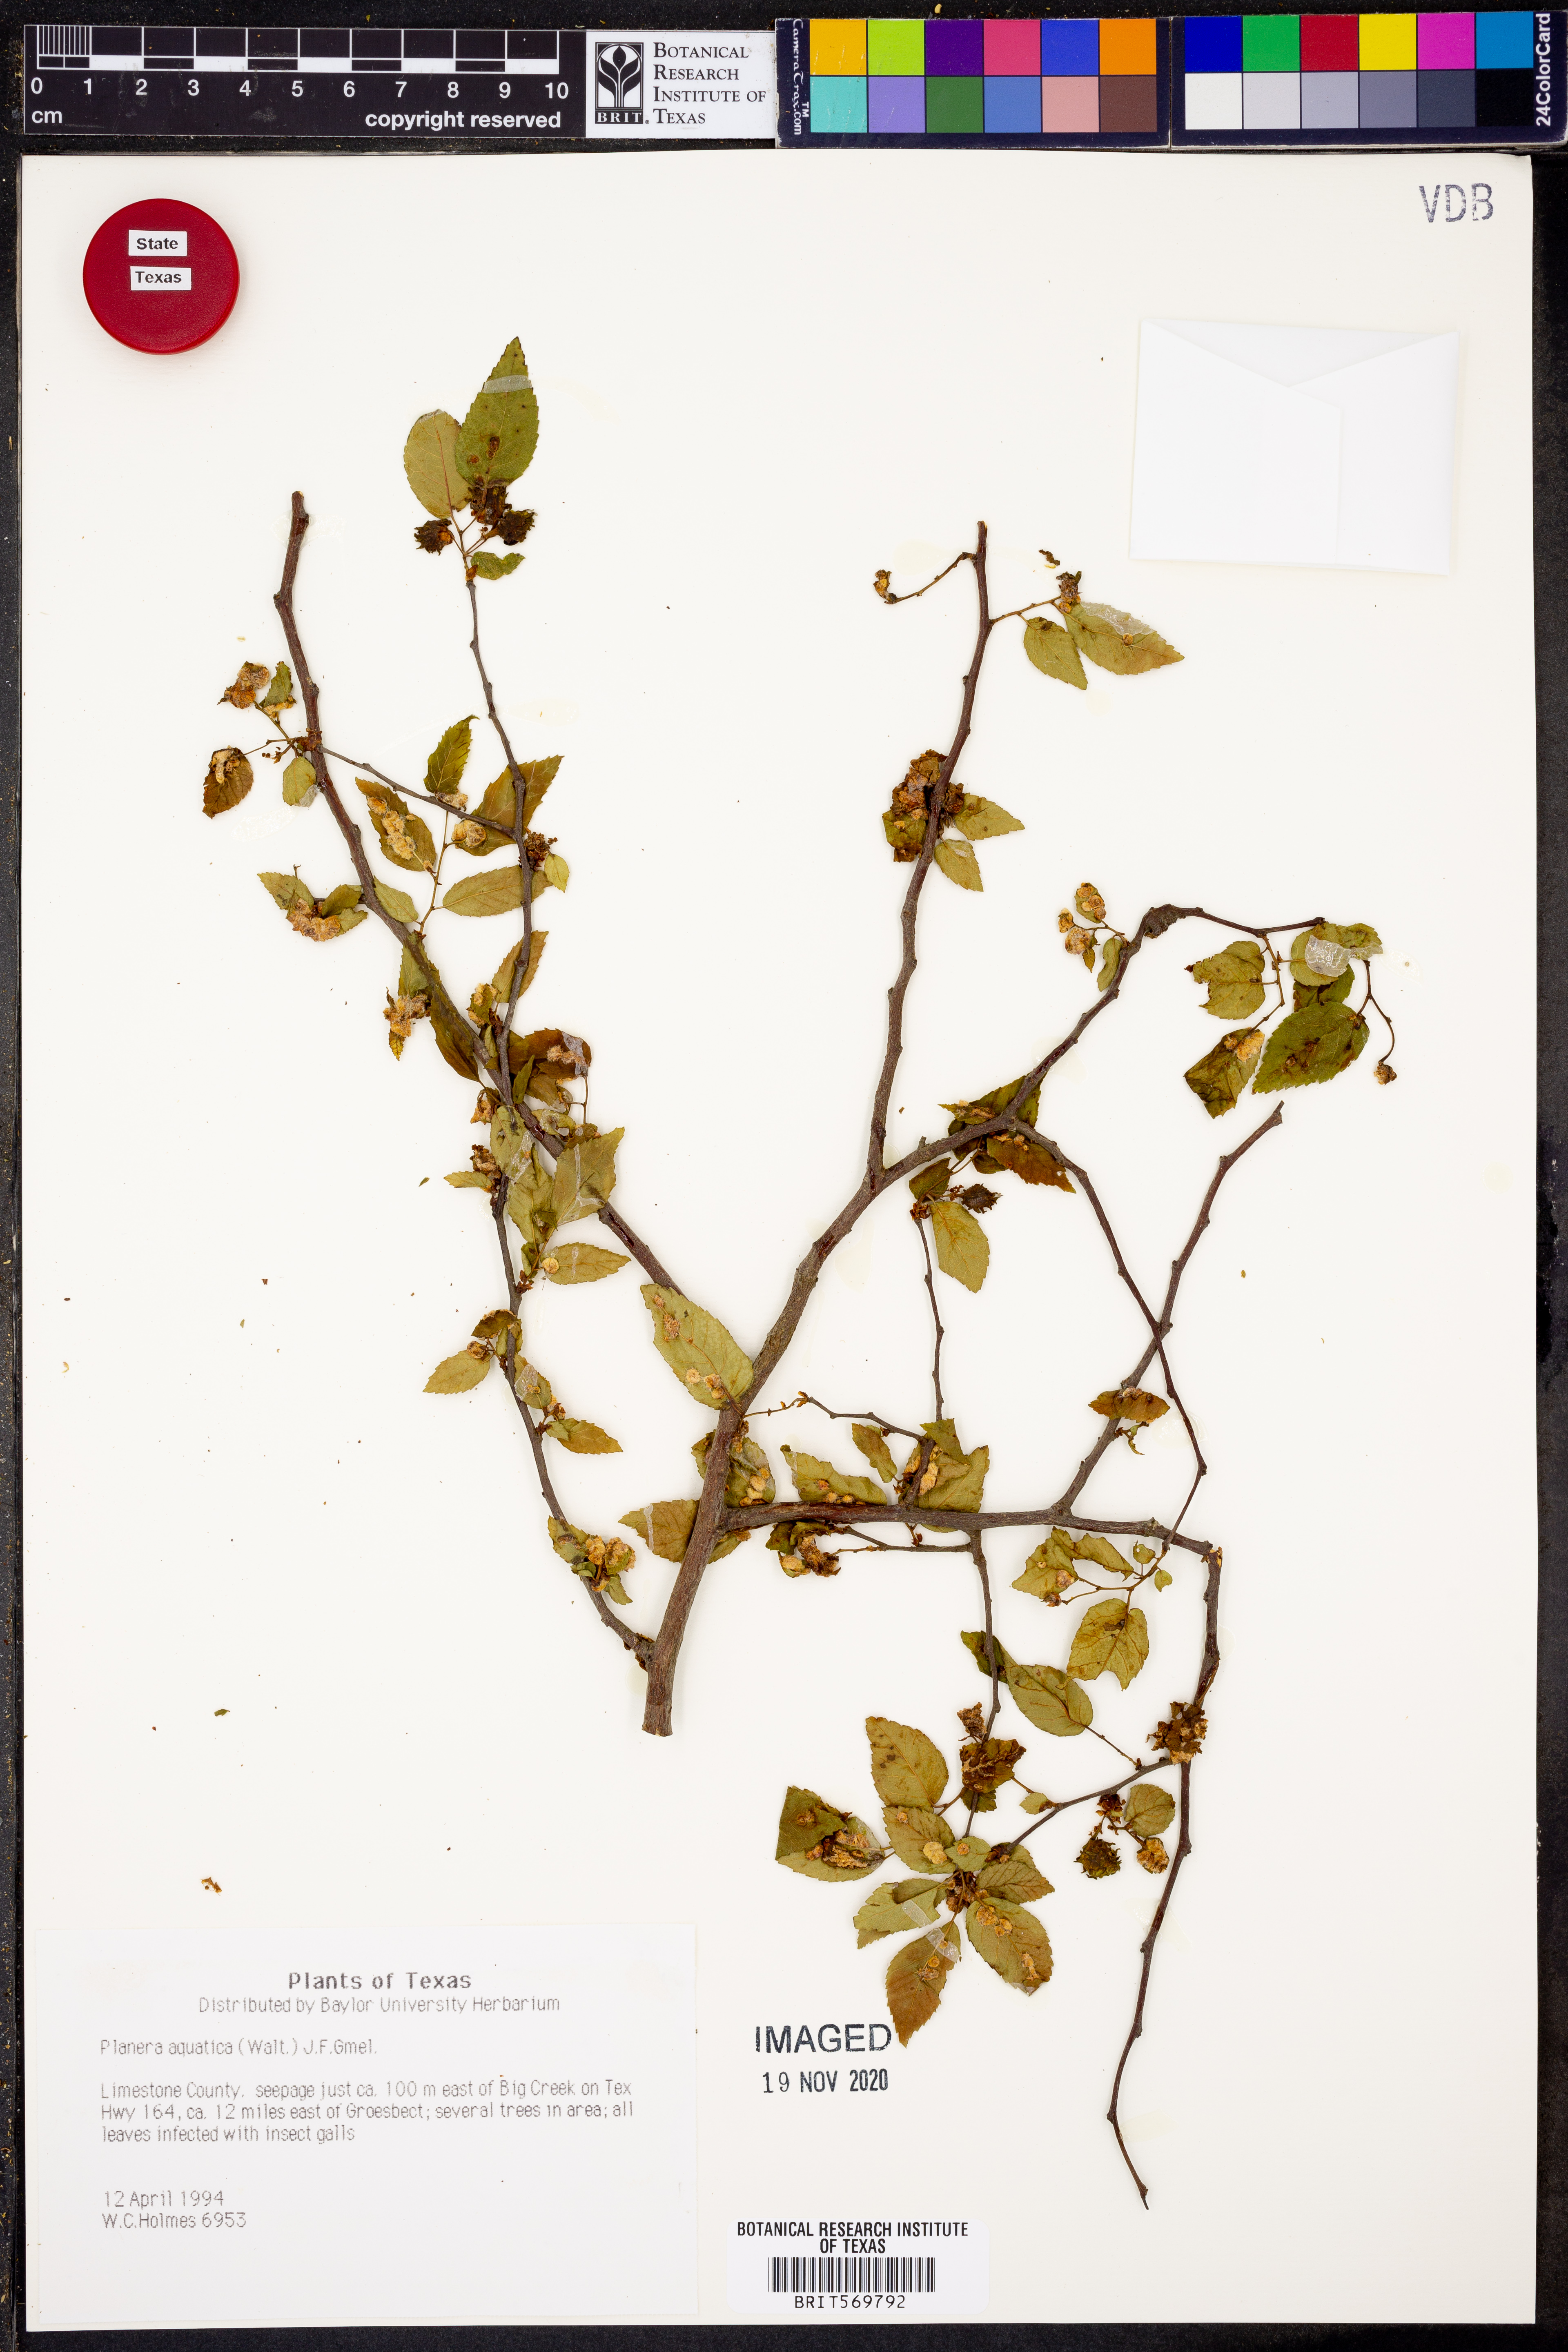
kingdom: Plantae
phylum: Tracheophyta
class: Magnoliopsida
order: Rosales
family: Ulmaceae
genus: Planera
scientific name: Planera aquatica
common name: Water-elm
